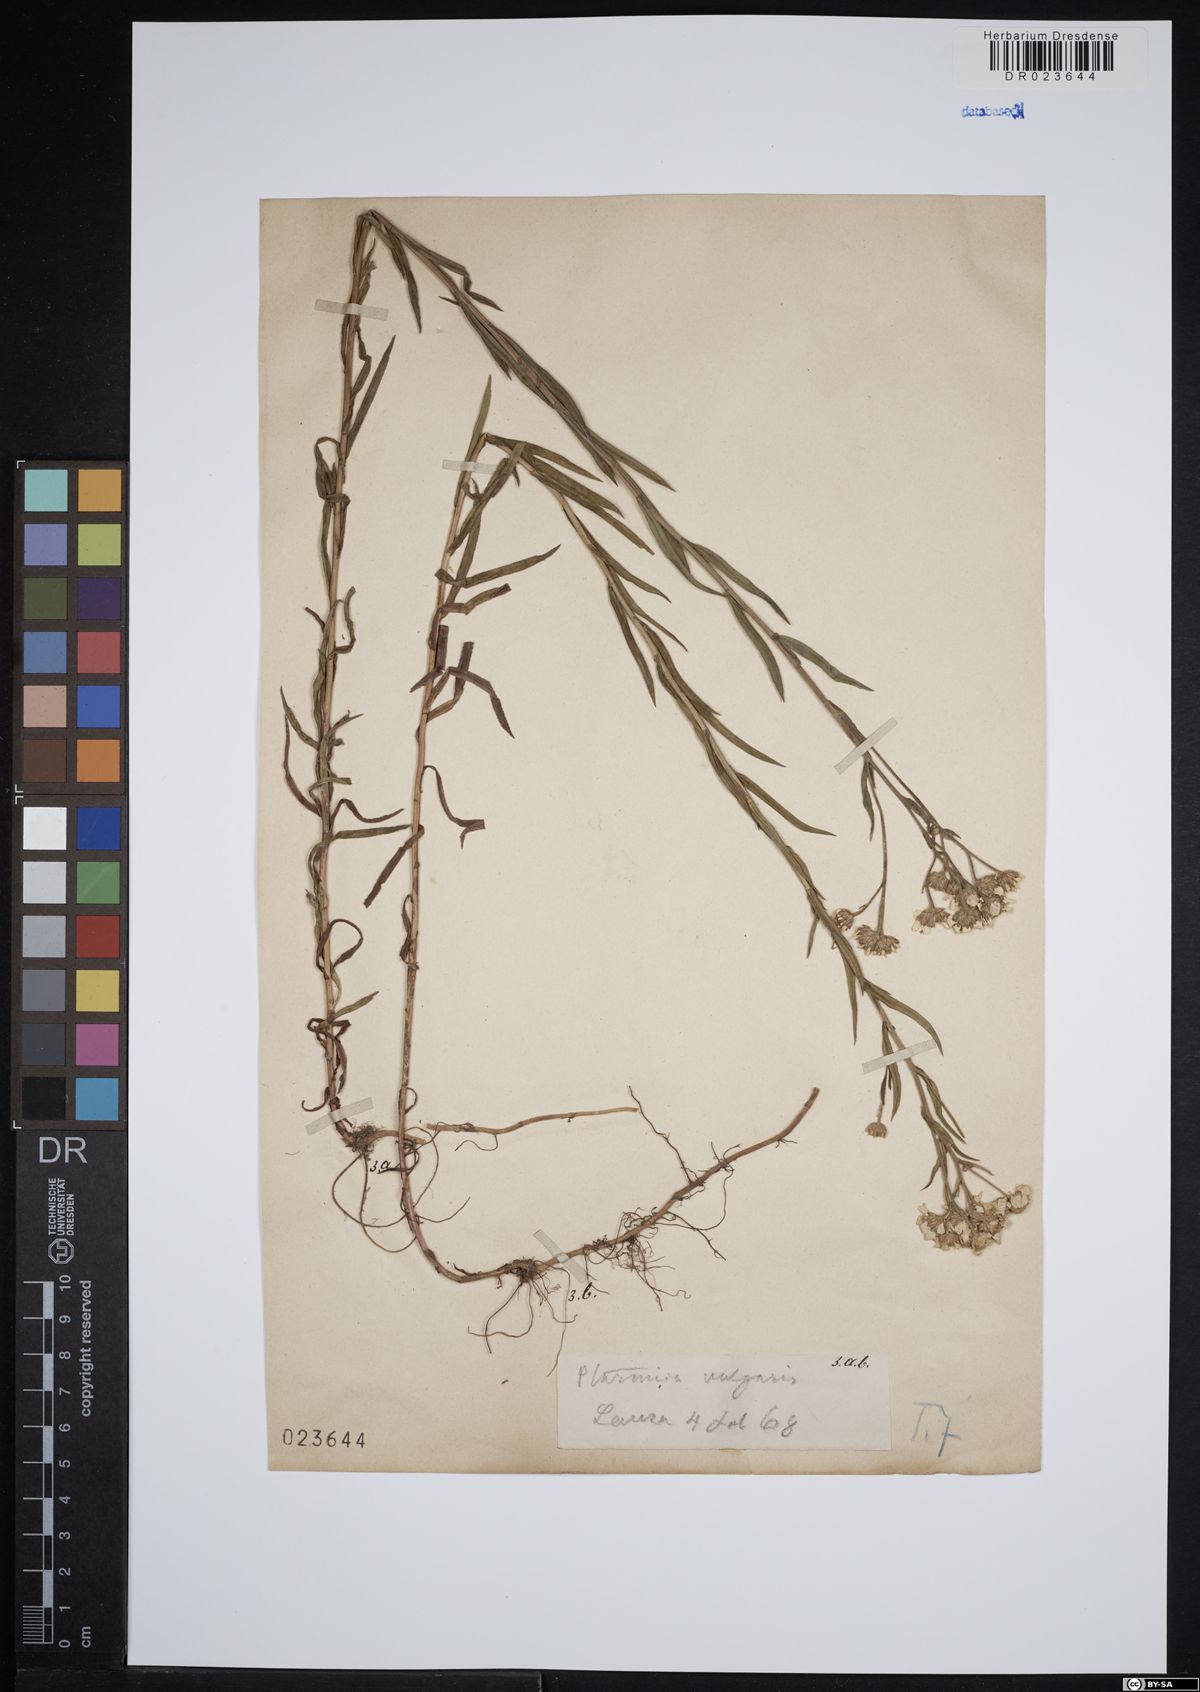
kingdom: Plantae
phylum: Tracheophyta
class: Magnoliopsida
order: Asterales
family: Asteraceae
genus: Achillea
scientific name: Achillea ptarmica
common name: Sneezeweed
